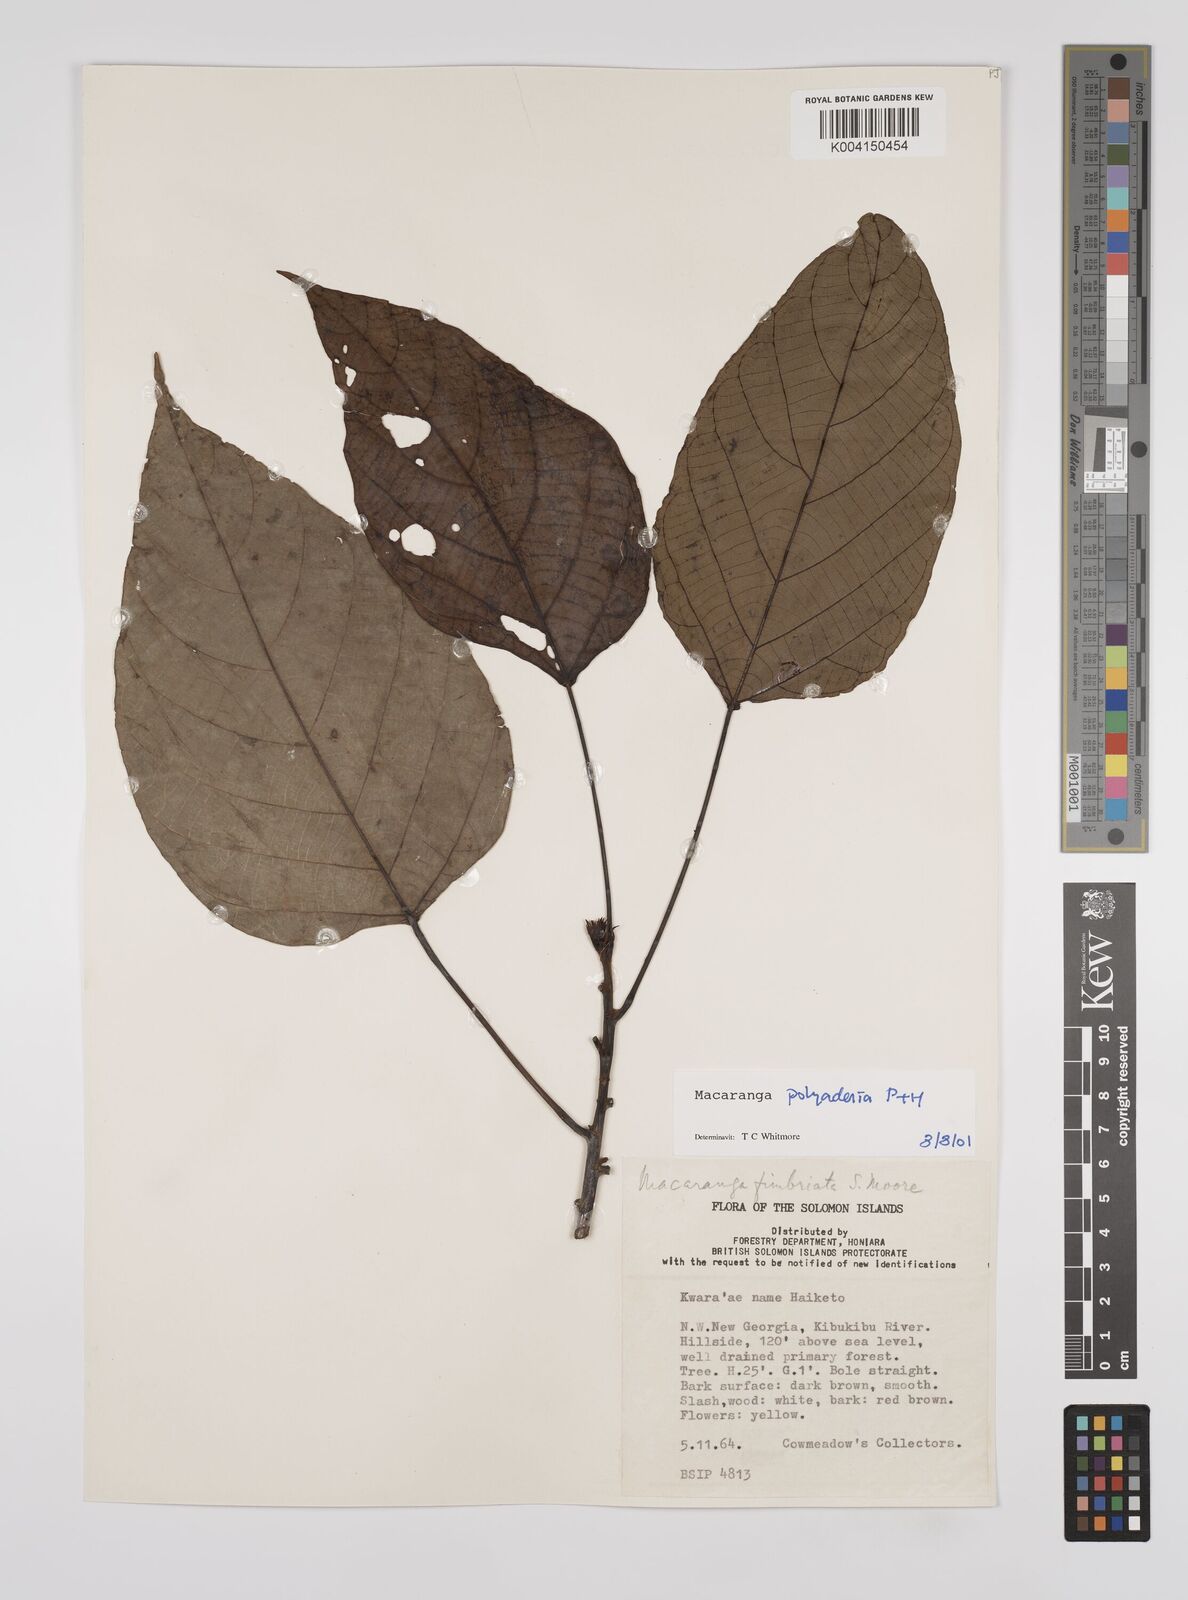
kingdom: Plantae
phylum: Tracheophyta
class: Magnoliopsida
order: Malpighiales
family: Euphorbiaceae
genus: Macaranga
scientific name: Macaranga polyadenia
